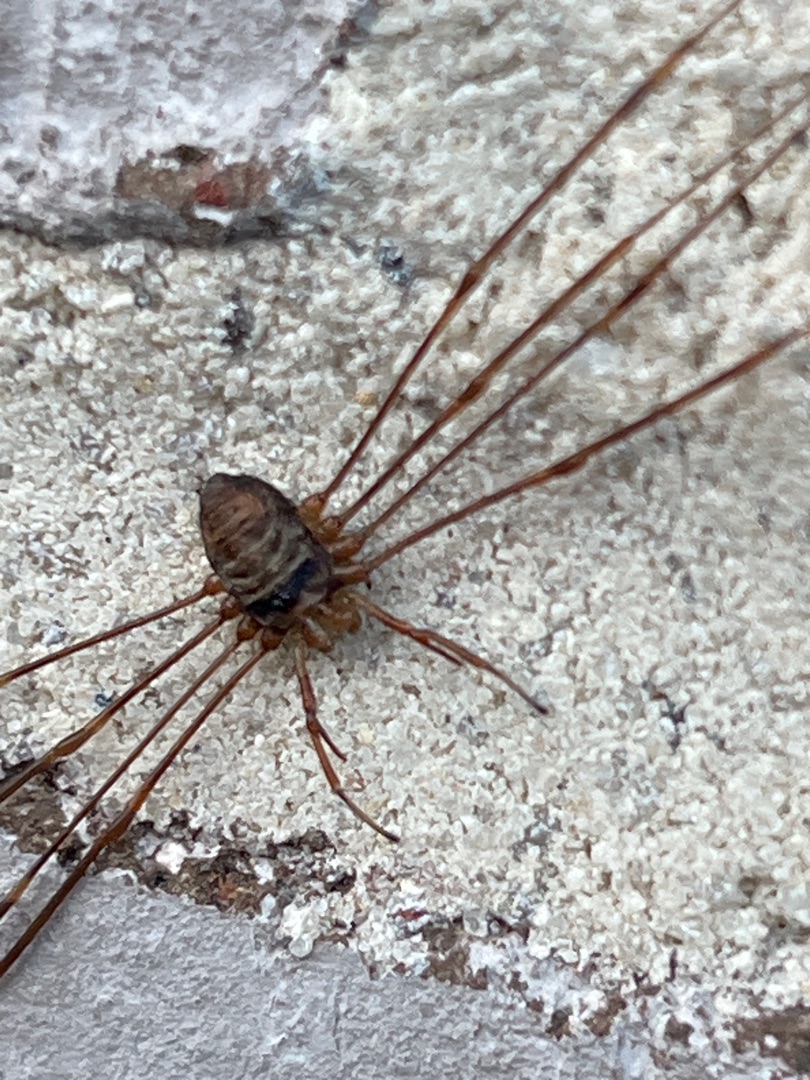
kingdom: Animalia
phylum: Arthropoda
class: Arachnida
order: Opiliones
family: Phalangiidae
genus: Dicranopalpus
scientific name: Dicranopalpus ramosus
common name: Gaffelmejer
